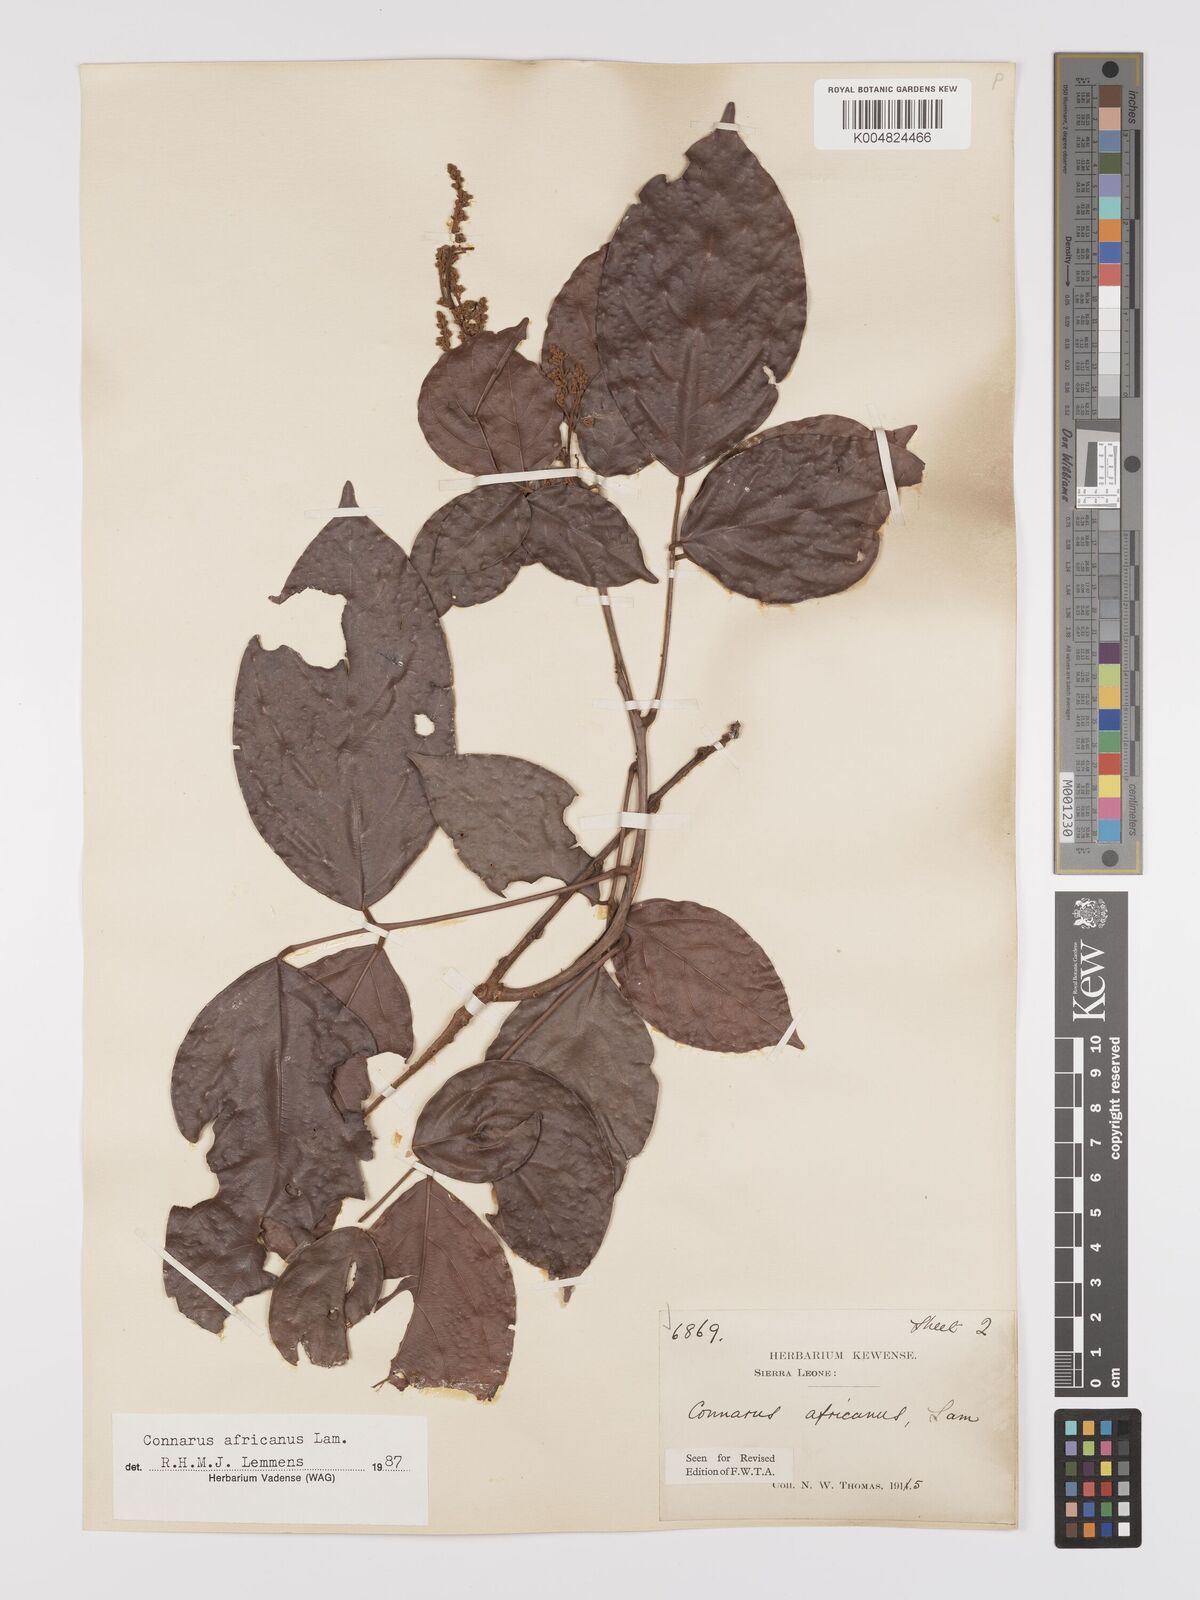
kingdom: Plantae
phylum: Tracheophyta
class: Magnoliopsida
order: Oxalidales
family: Connaraceae
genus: Connarus
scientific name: Connarus africanus
